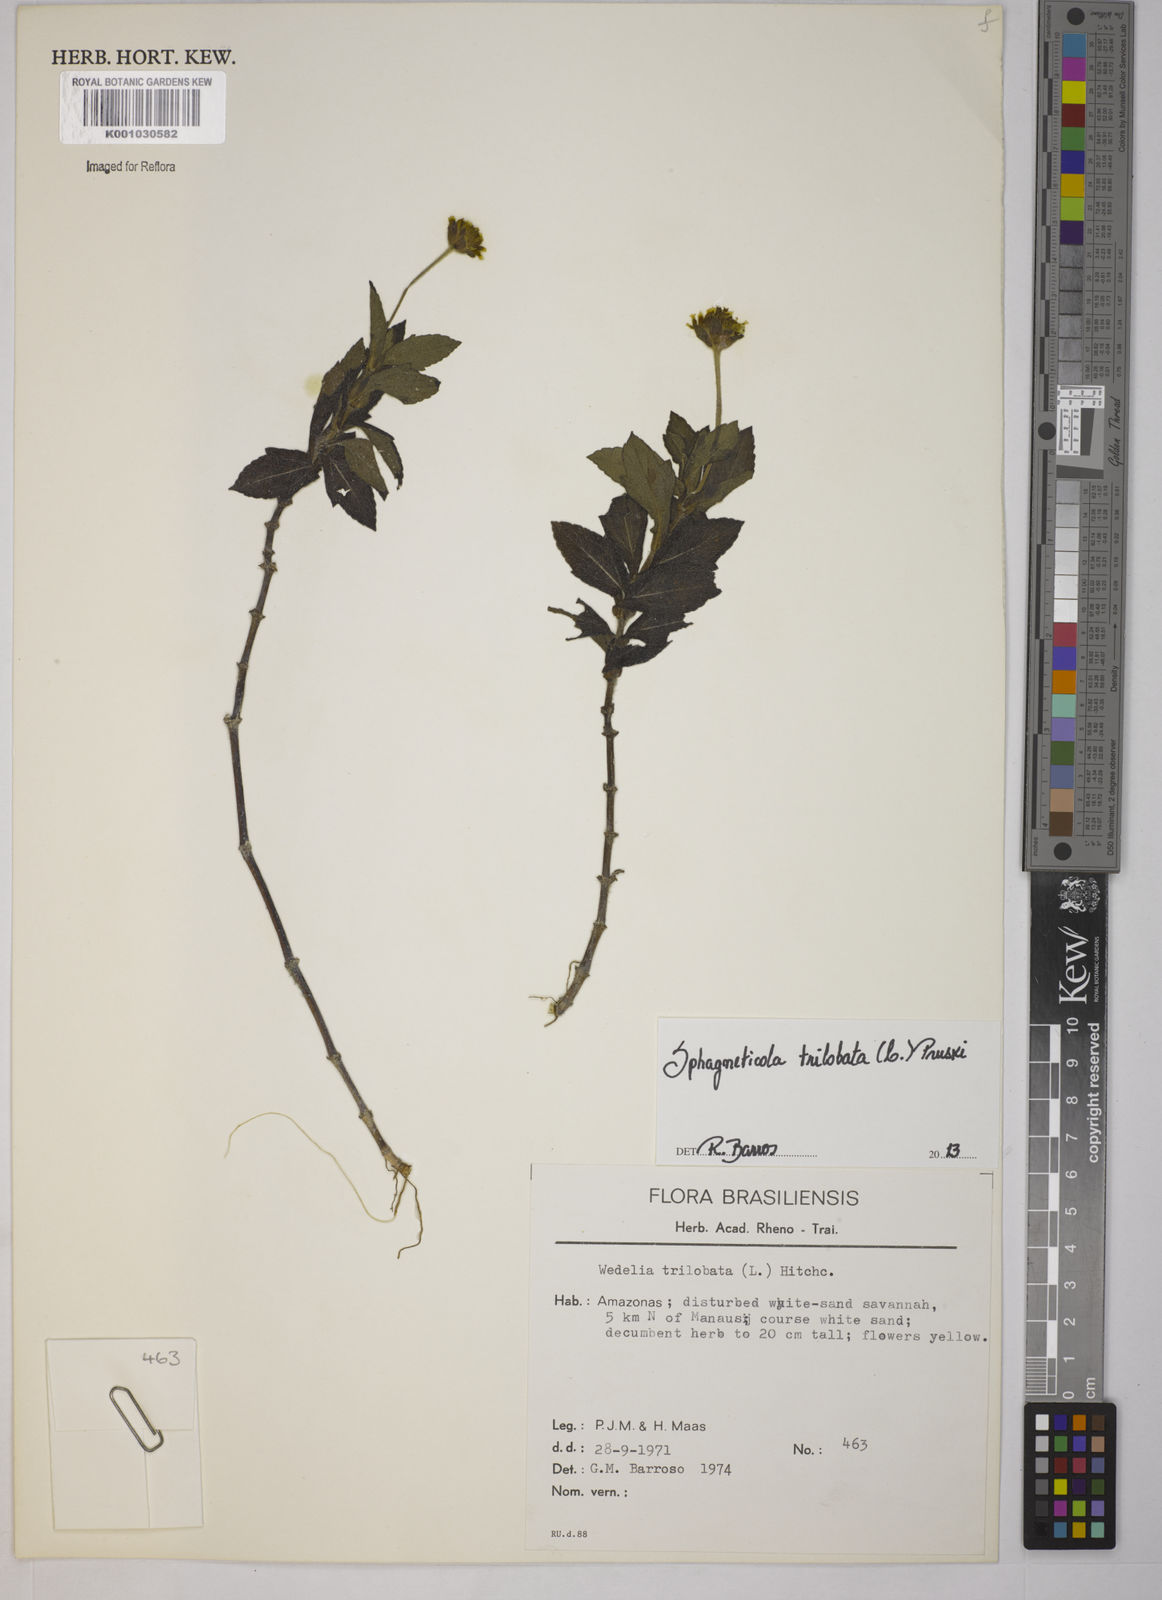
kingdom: Plantae
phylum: Tracheophyta
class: Magnoliopsida
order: Asterales
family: Asteraceae
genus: Sphagneticola
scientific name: Sphagneticola trilobata
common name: Bay biscayne creeping-oxeye
